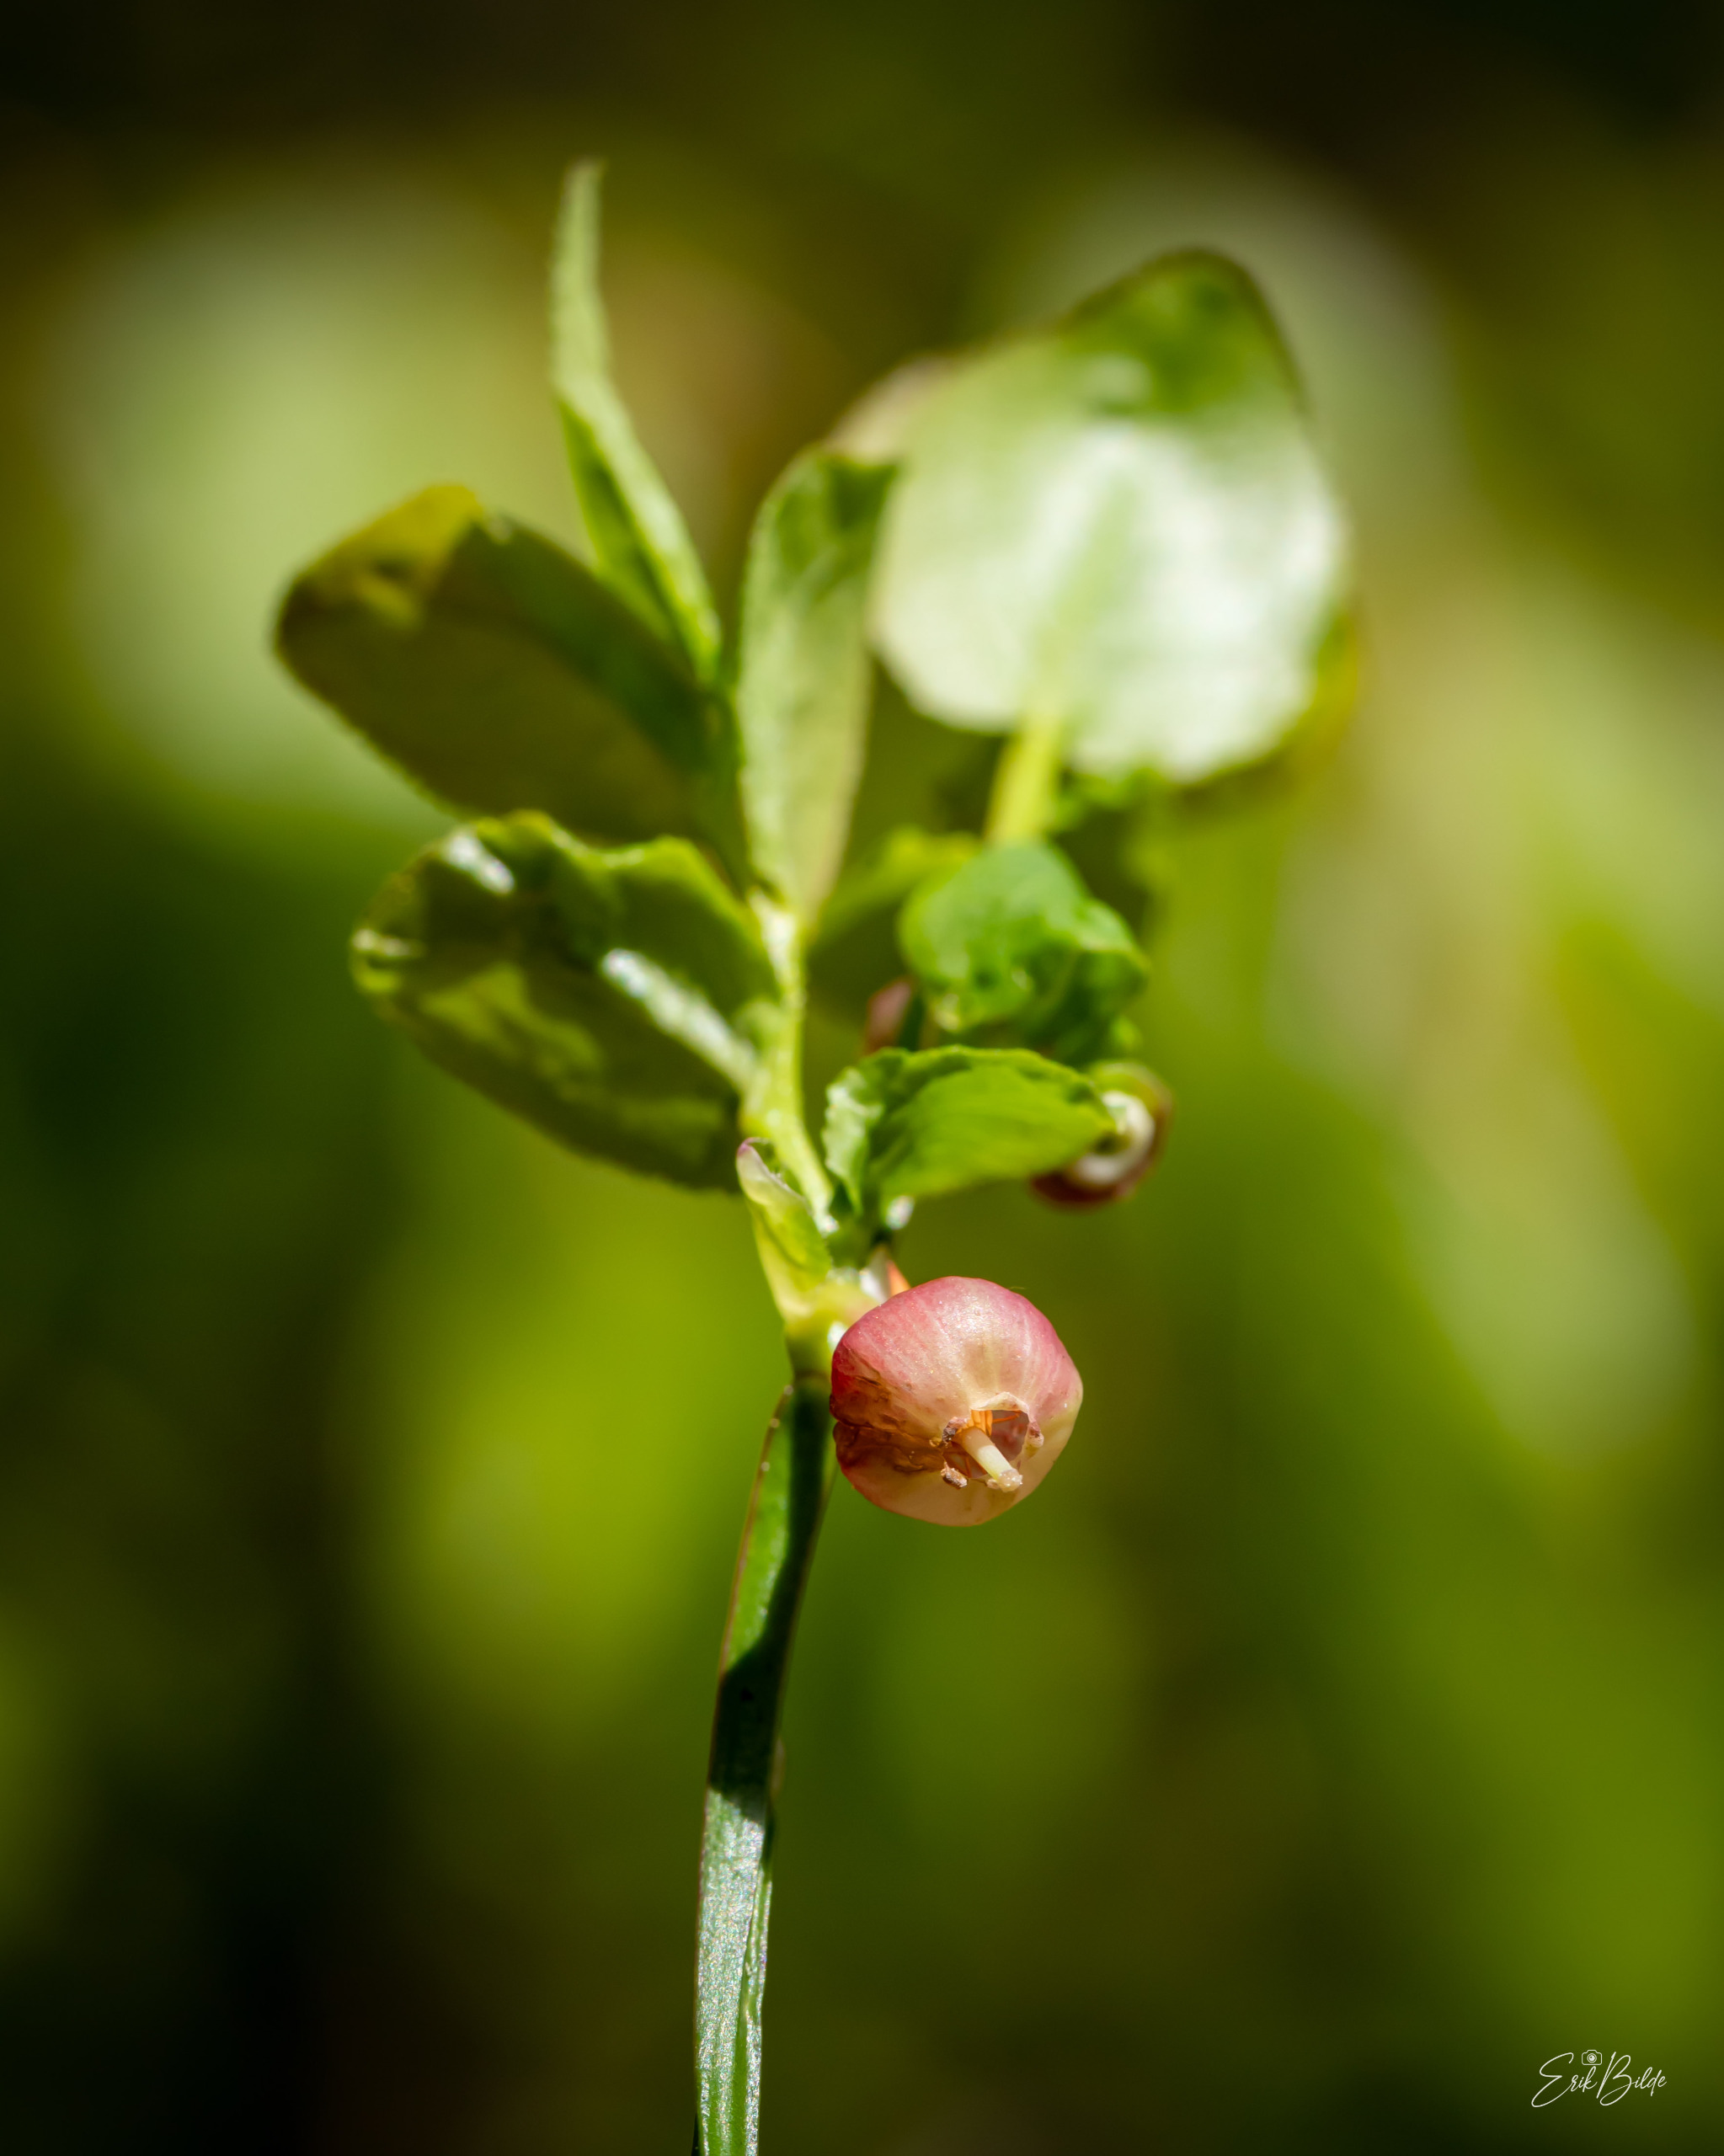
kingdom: Plantae
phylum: Tracheophyta
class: Magnoliopsida
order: Ericales
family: Ericaceae
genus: Vaccinium
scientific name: Vaccinium myrtillus
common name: Blåbær
